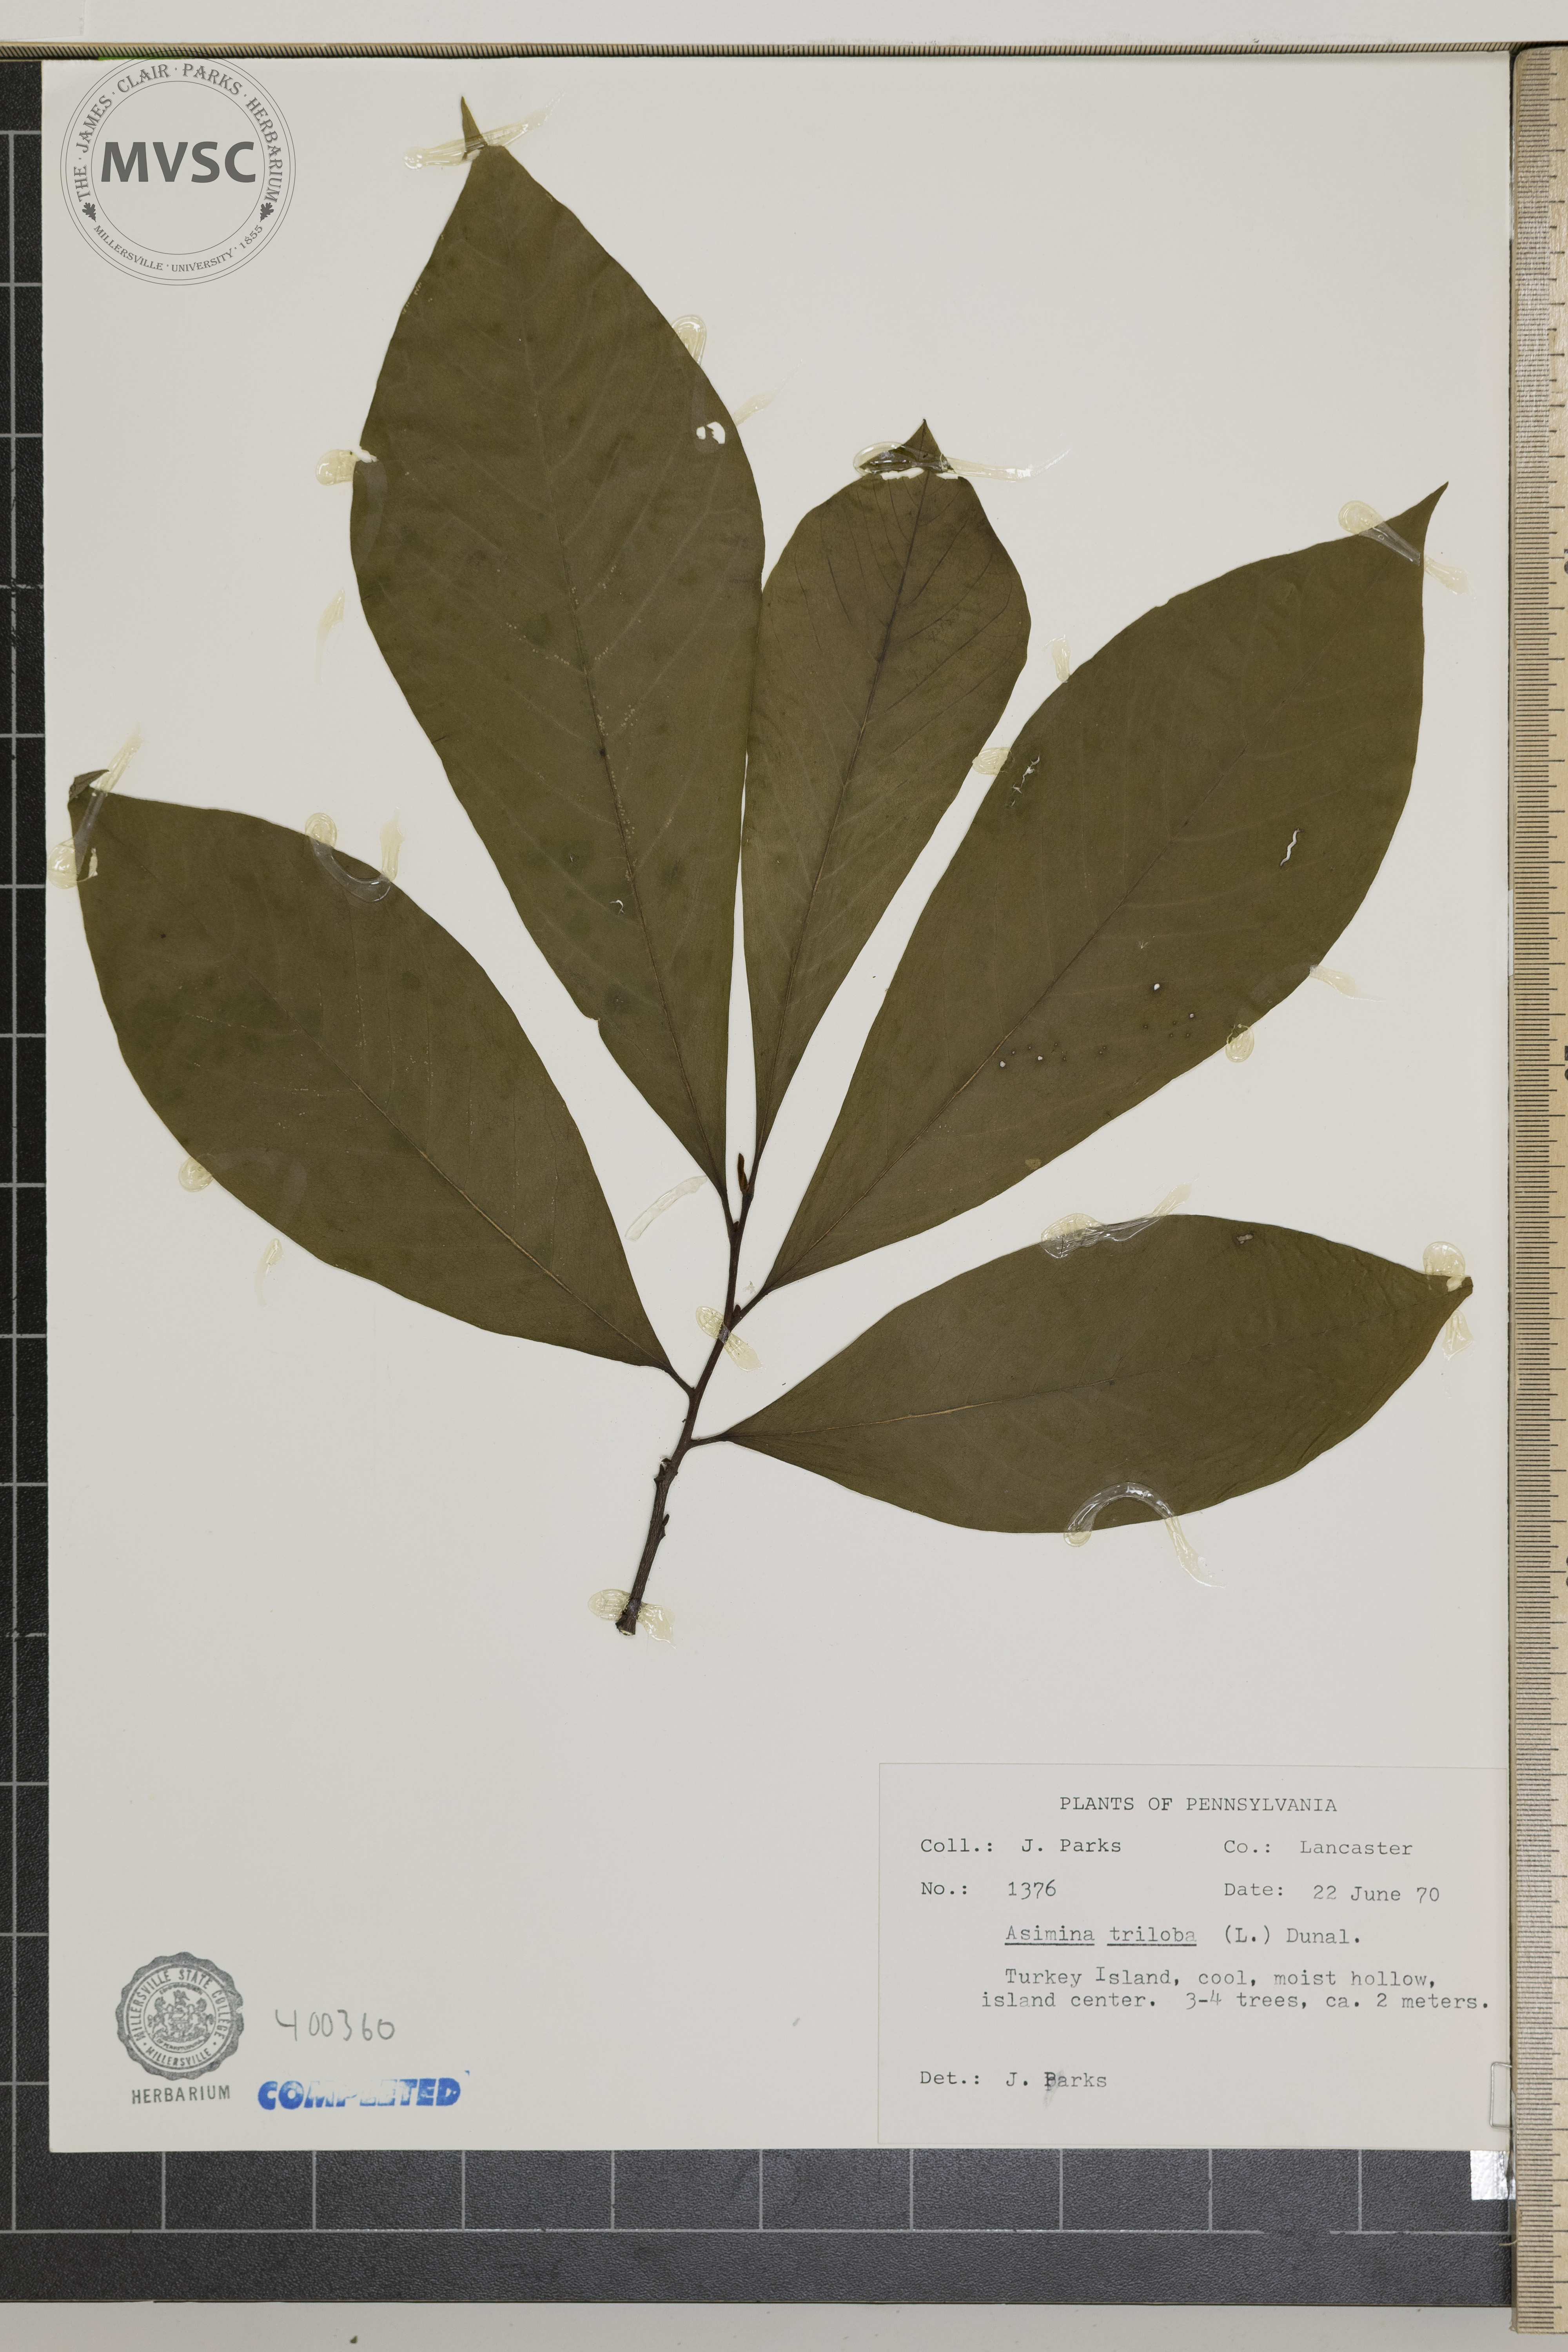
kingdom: Plantae
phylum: Tracheophyta
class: Magnoliopsida
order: Magnoliales
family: Annonaceae
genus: Asimina
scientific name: Asimina triloba
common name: pawpaw
